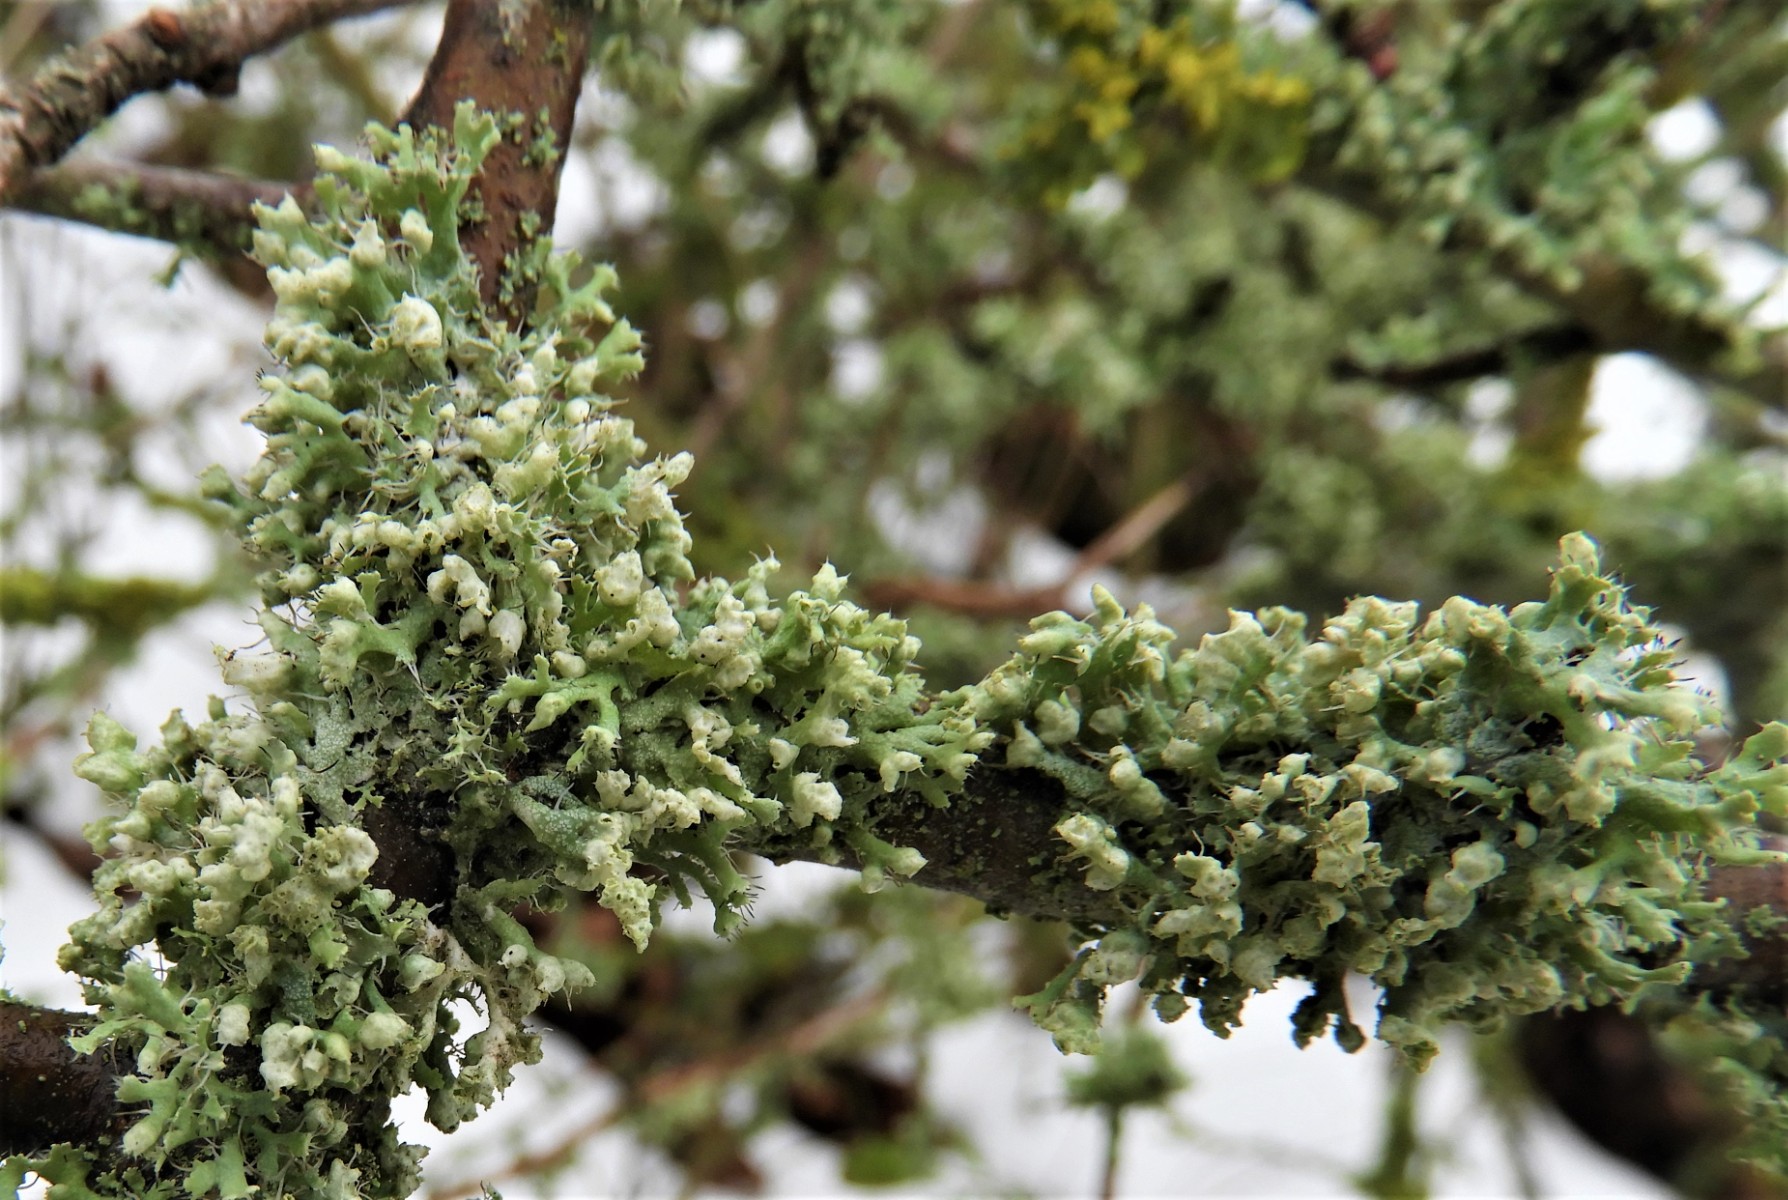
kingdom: Fungi
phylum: Ascomycota
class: Lecanoromycetes
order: Caliciales
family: Physciaceae
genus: Physcia
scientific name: Physcia adscendens
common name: hætte-rosetlav
